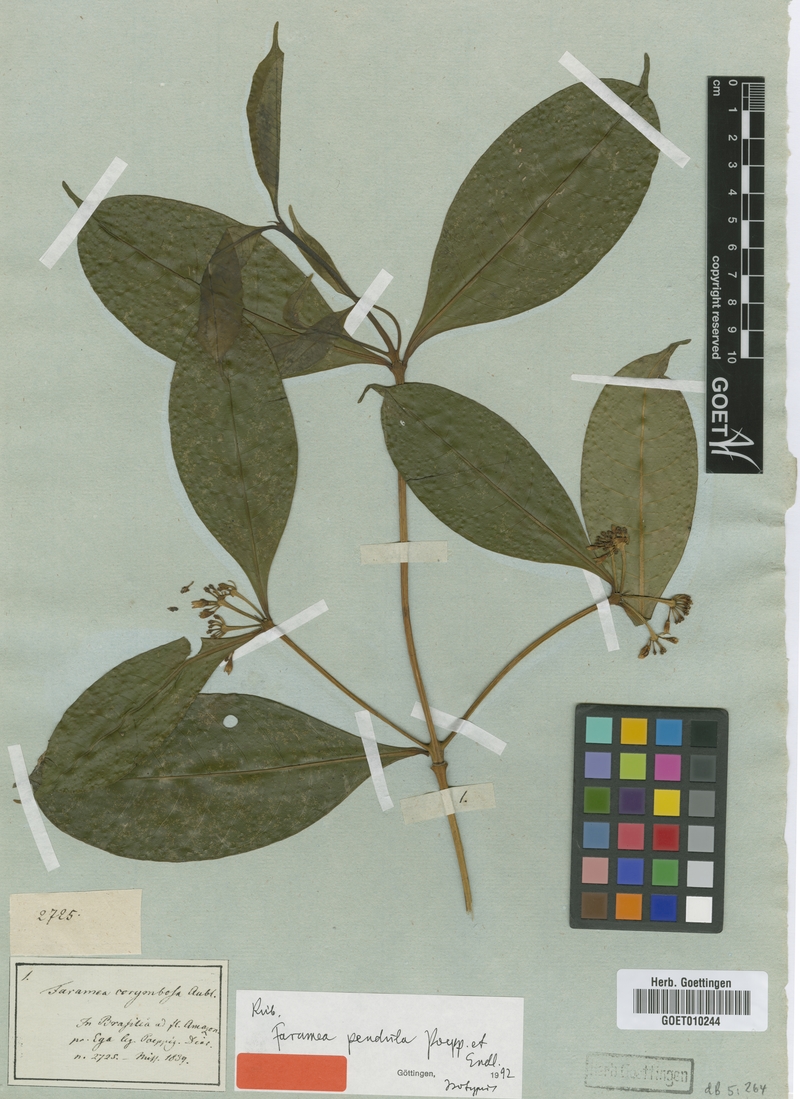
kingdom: Plantae
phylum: Tracheophyta
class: Magnoliopsida
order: Gentianales
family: Rubiaceae
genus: Faramea
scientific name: Faramea corymbosa
